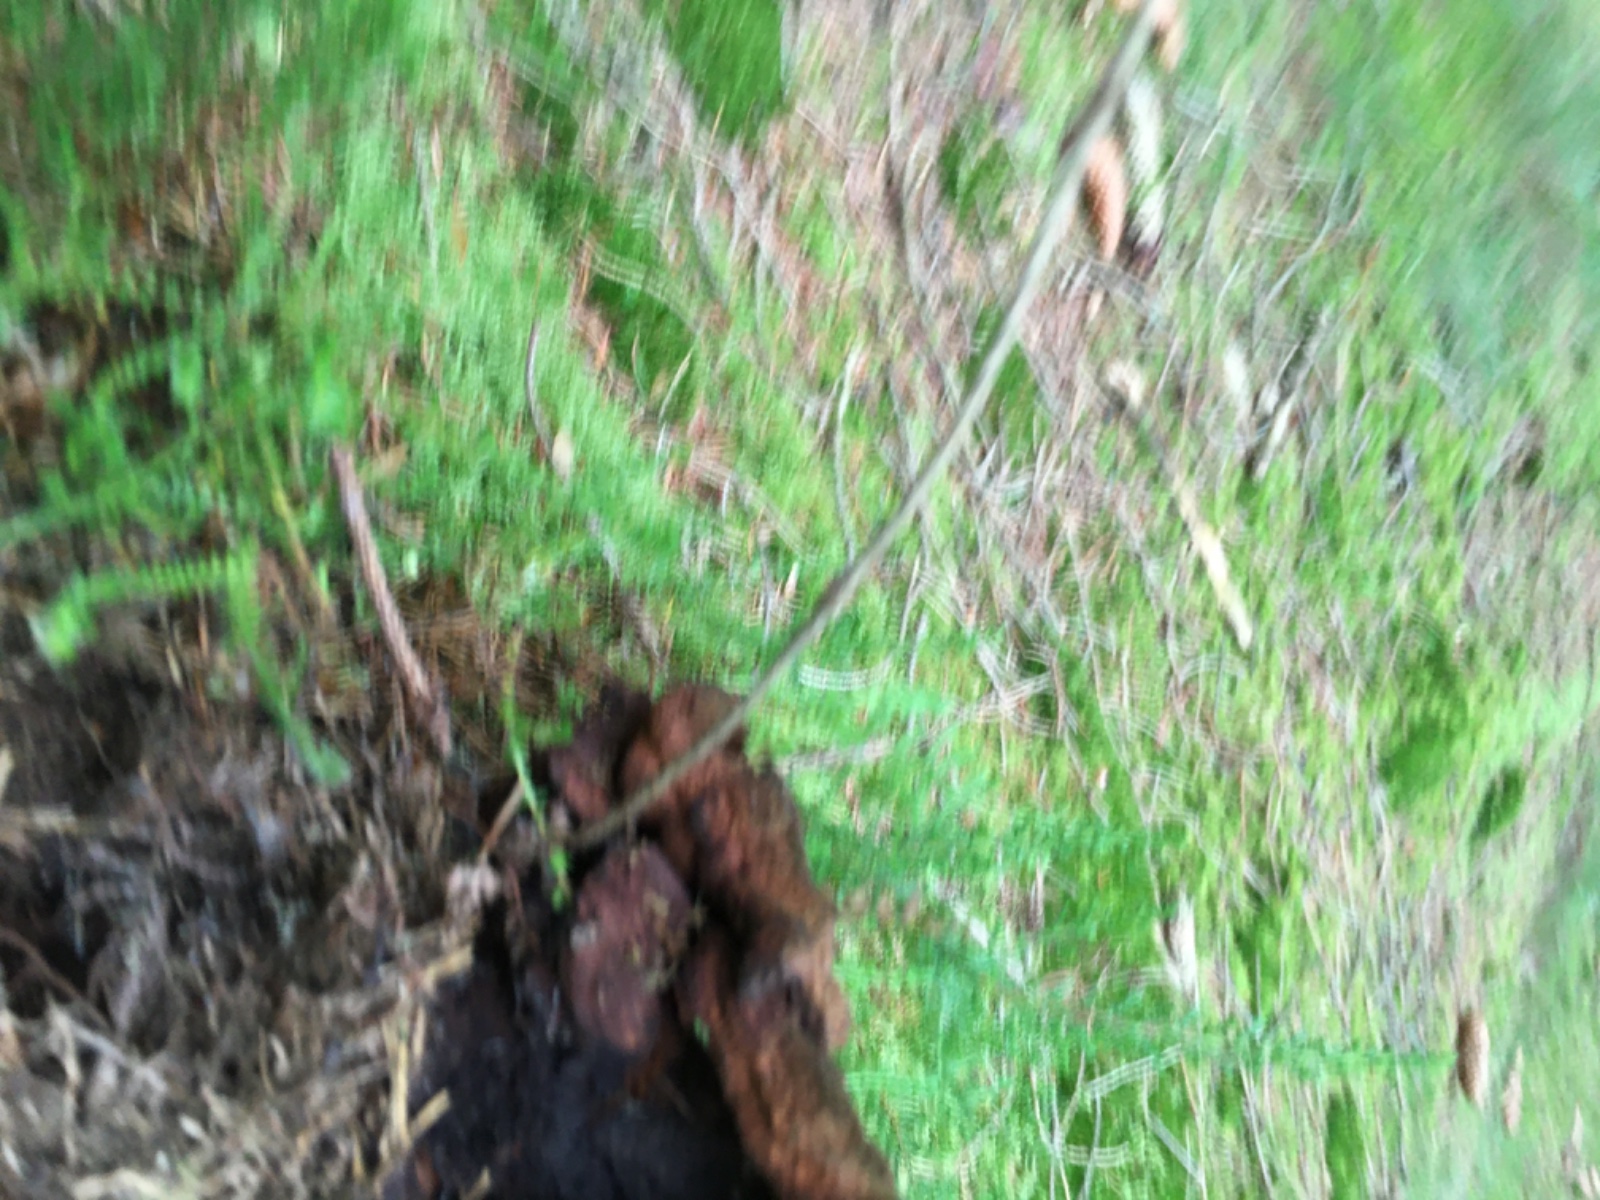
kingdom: Fungi
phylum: Basidiomycota
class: Agaricomycetes
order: Polyporales
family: Laetiporaceae
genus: Phaeolus
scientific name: Phaeolus schweinitzii
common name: brunporesvamp
